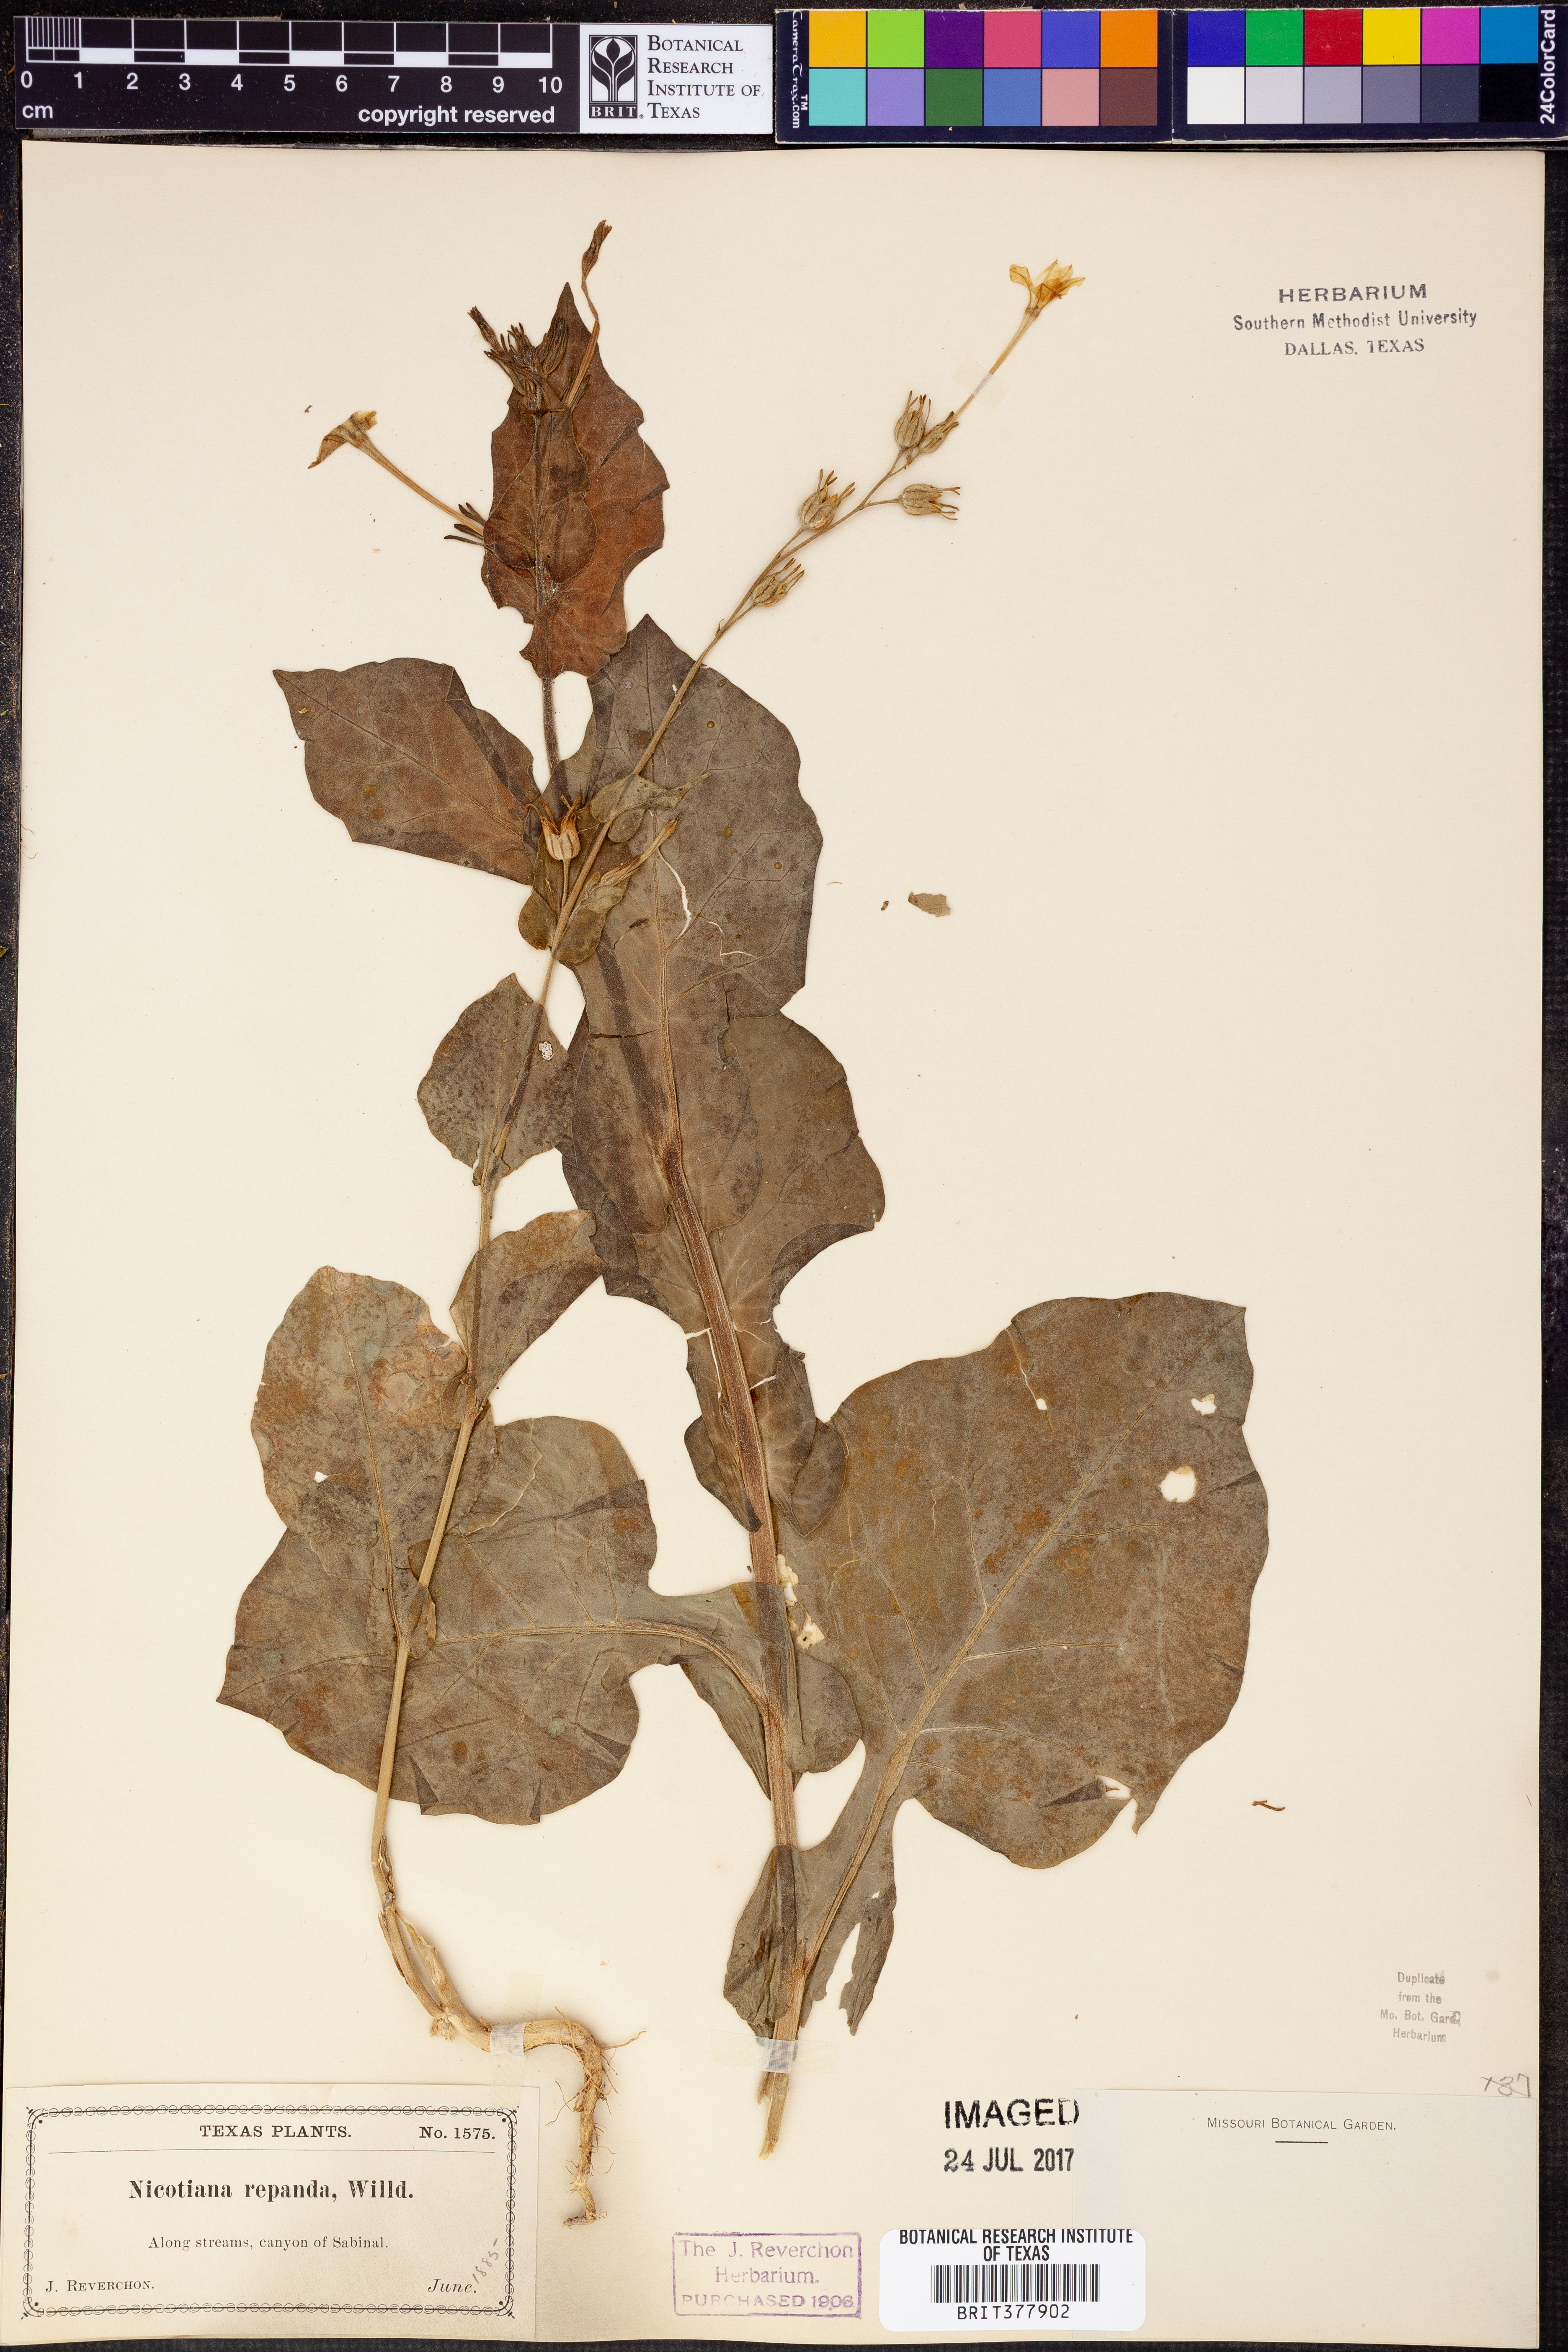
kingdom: Plantae
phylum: Tracheophyta
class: Magnoliopsida
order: Solanales
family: Solanaceae
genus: Nicotiana
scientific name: Nicotiana repanda
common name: Fiddle-leaf tobacco
